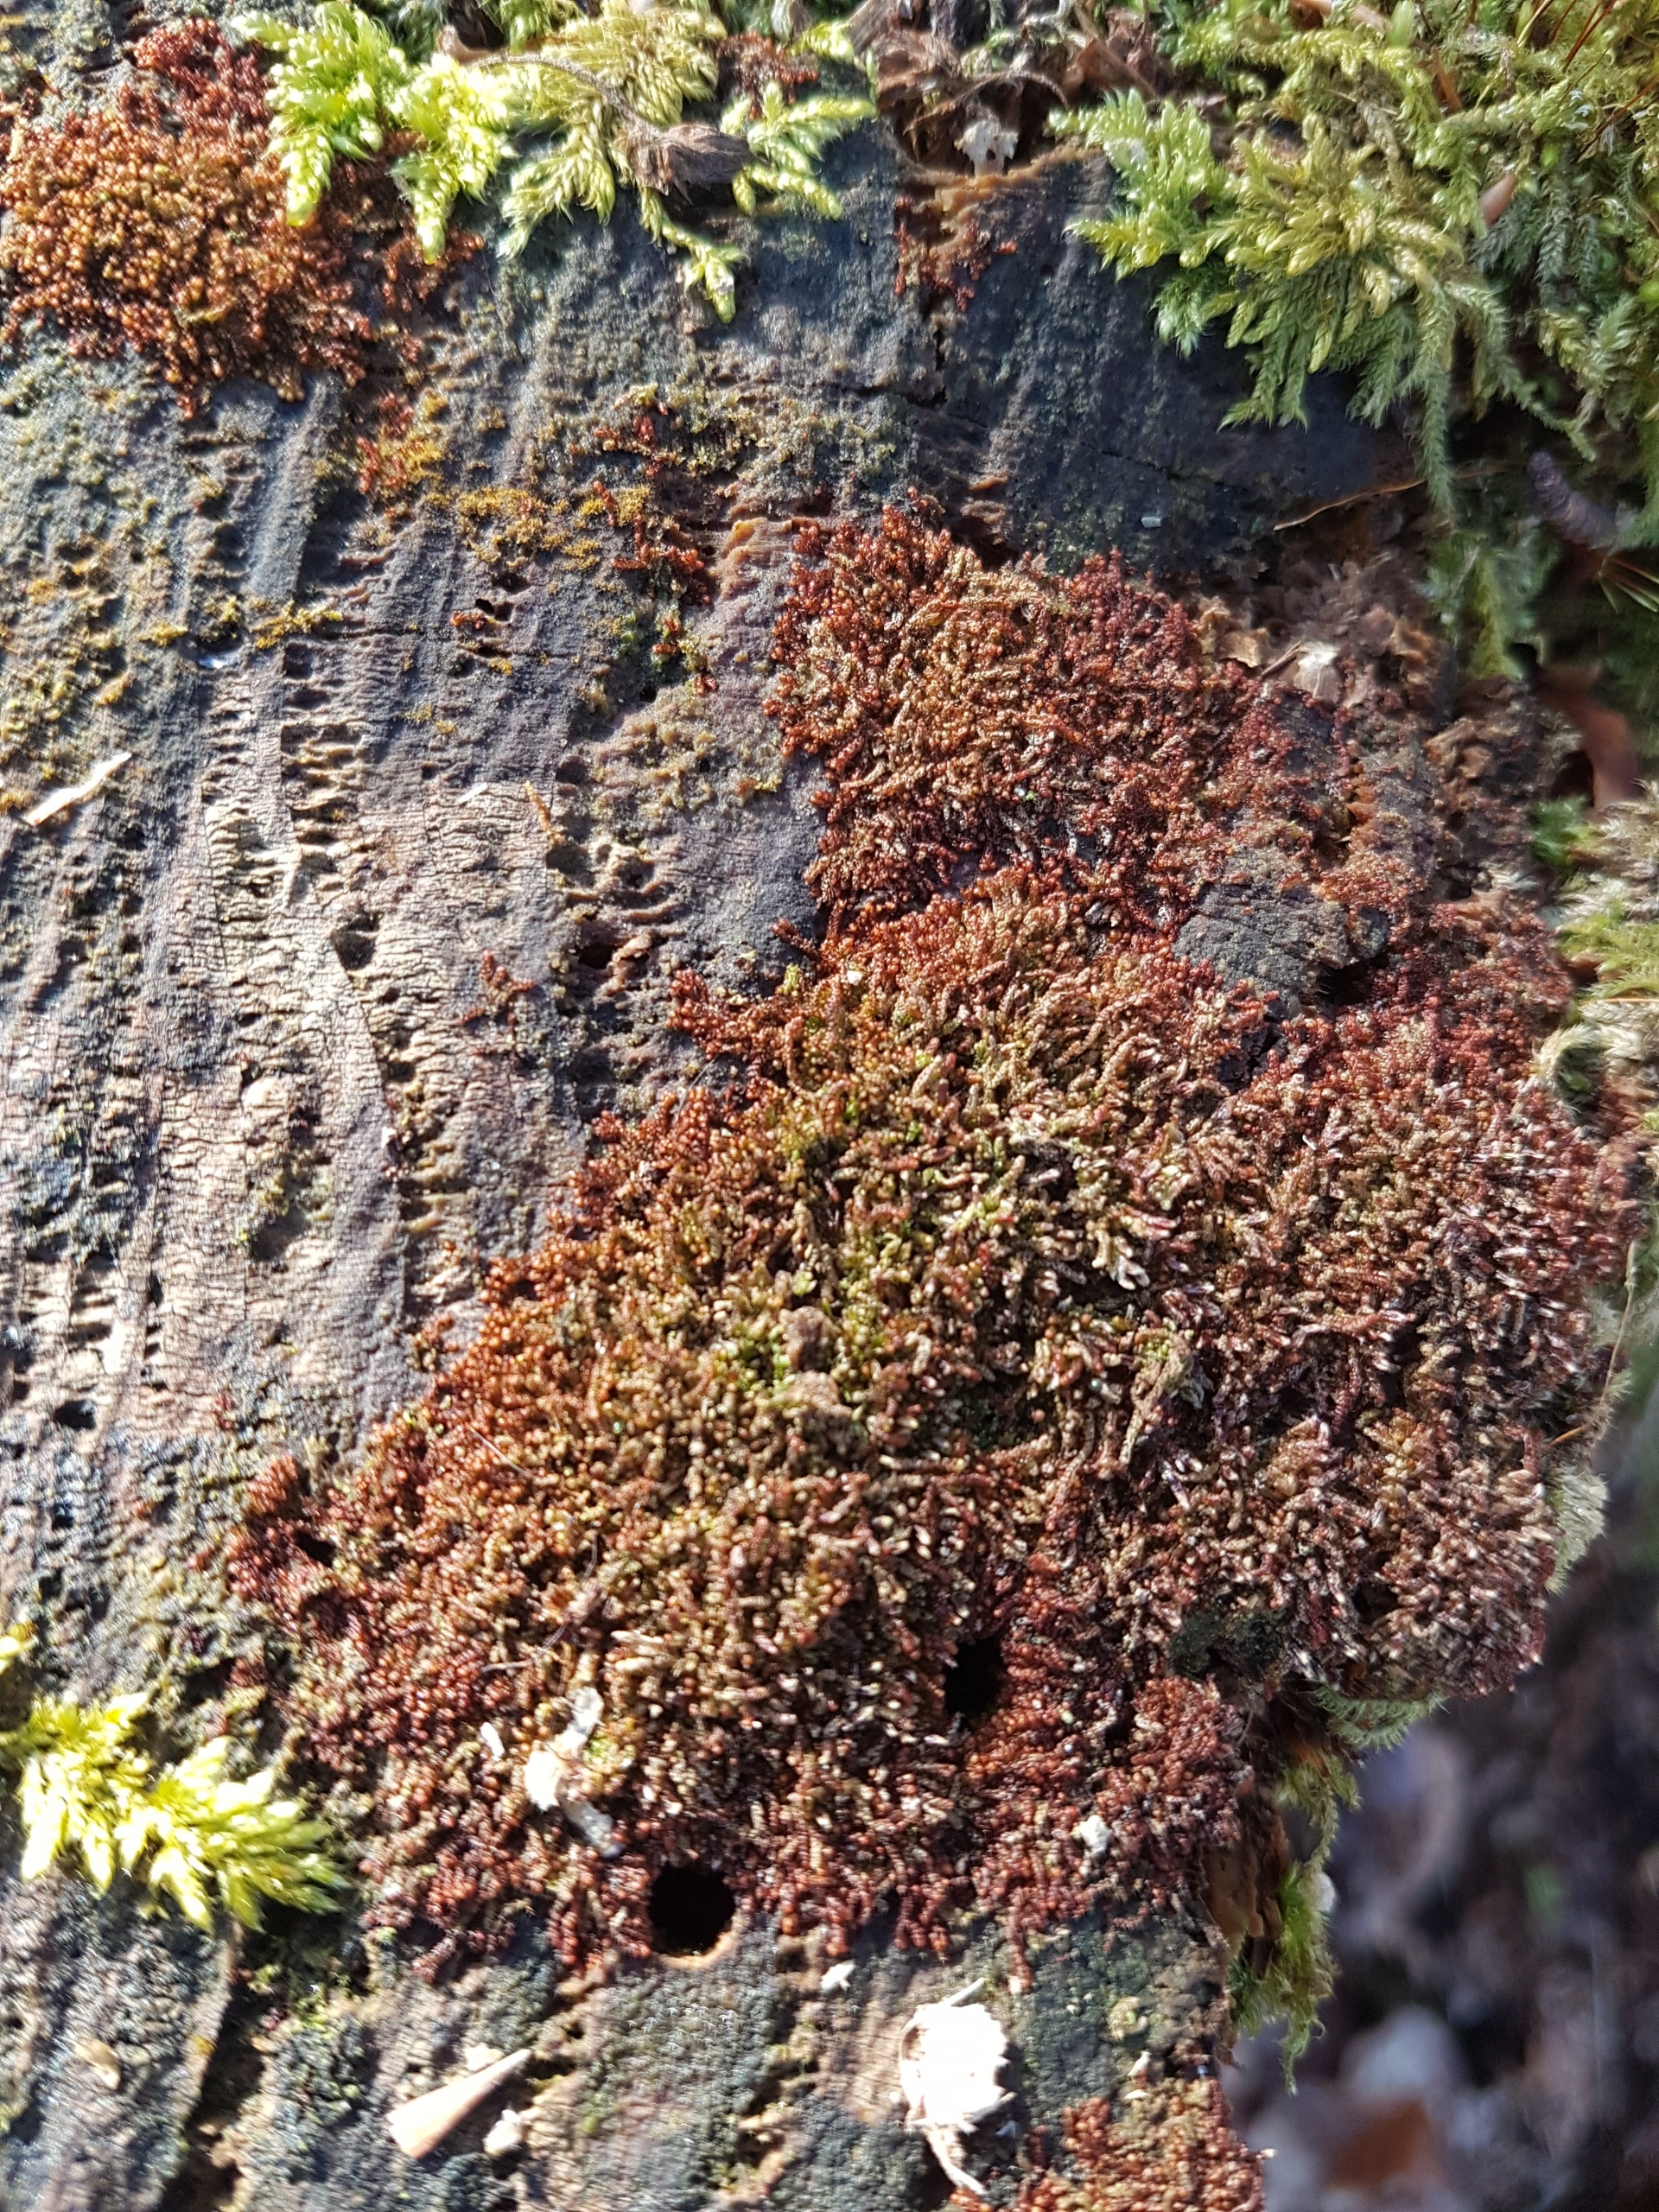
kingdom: Plantae
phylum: Marchantiophyta
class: Jungermanniopsida
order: Jungermanniales
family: Cephaloziaceae
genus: Nowellia
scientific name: Nowellia curvifolia
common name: Krumbladet stødmos
